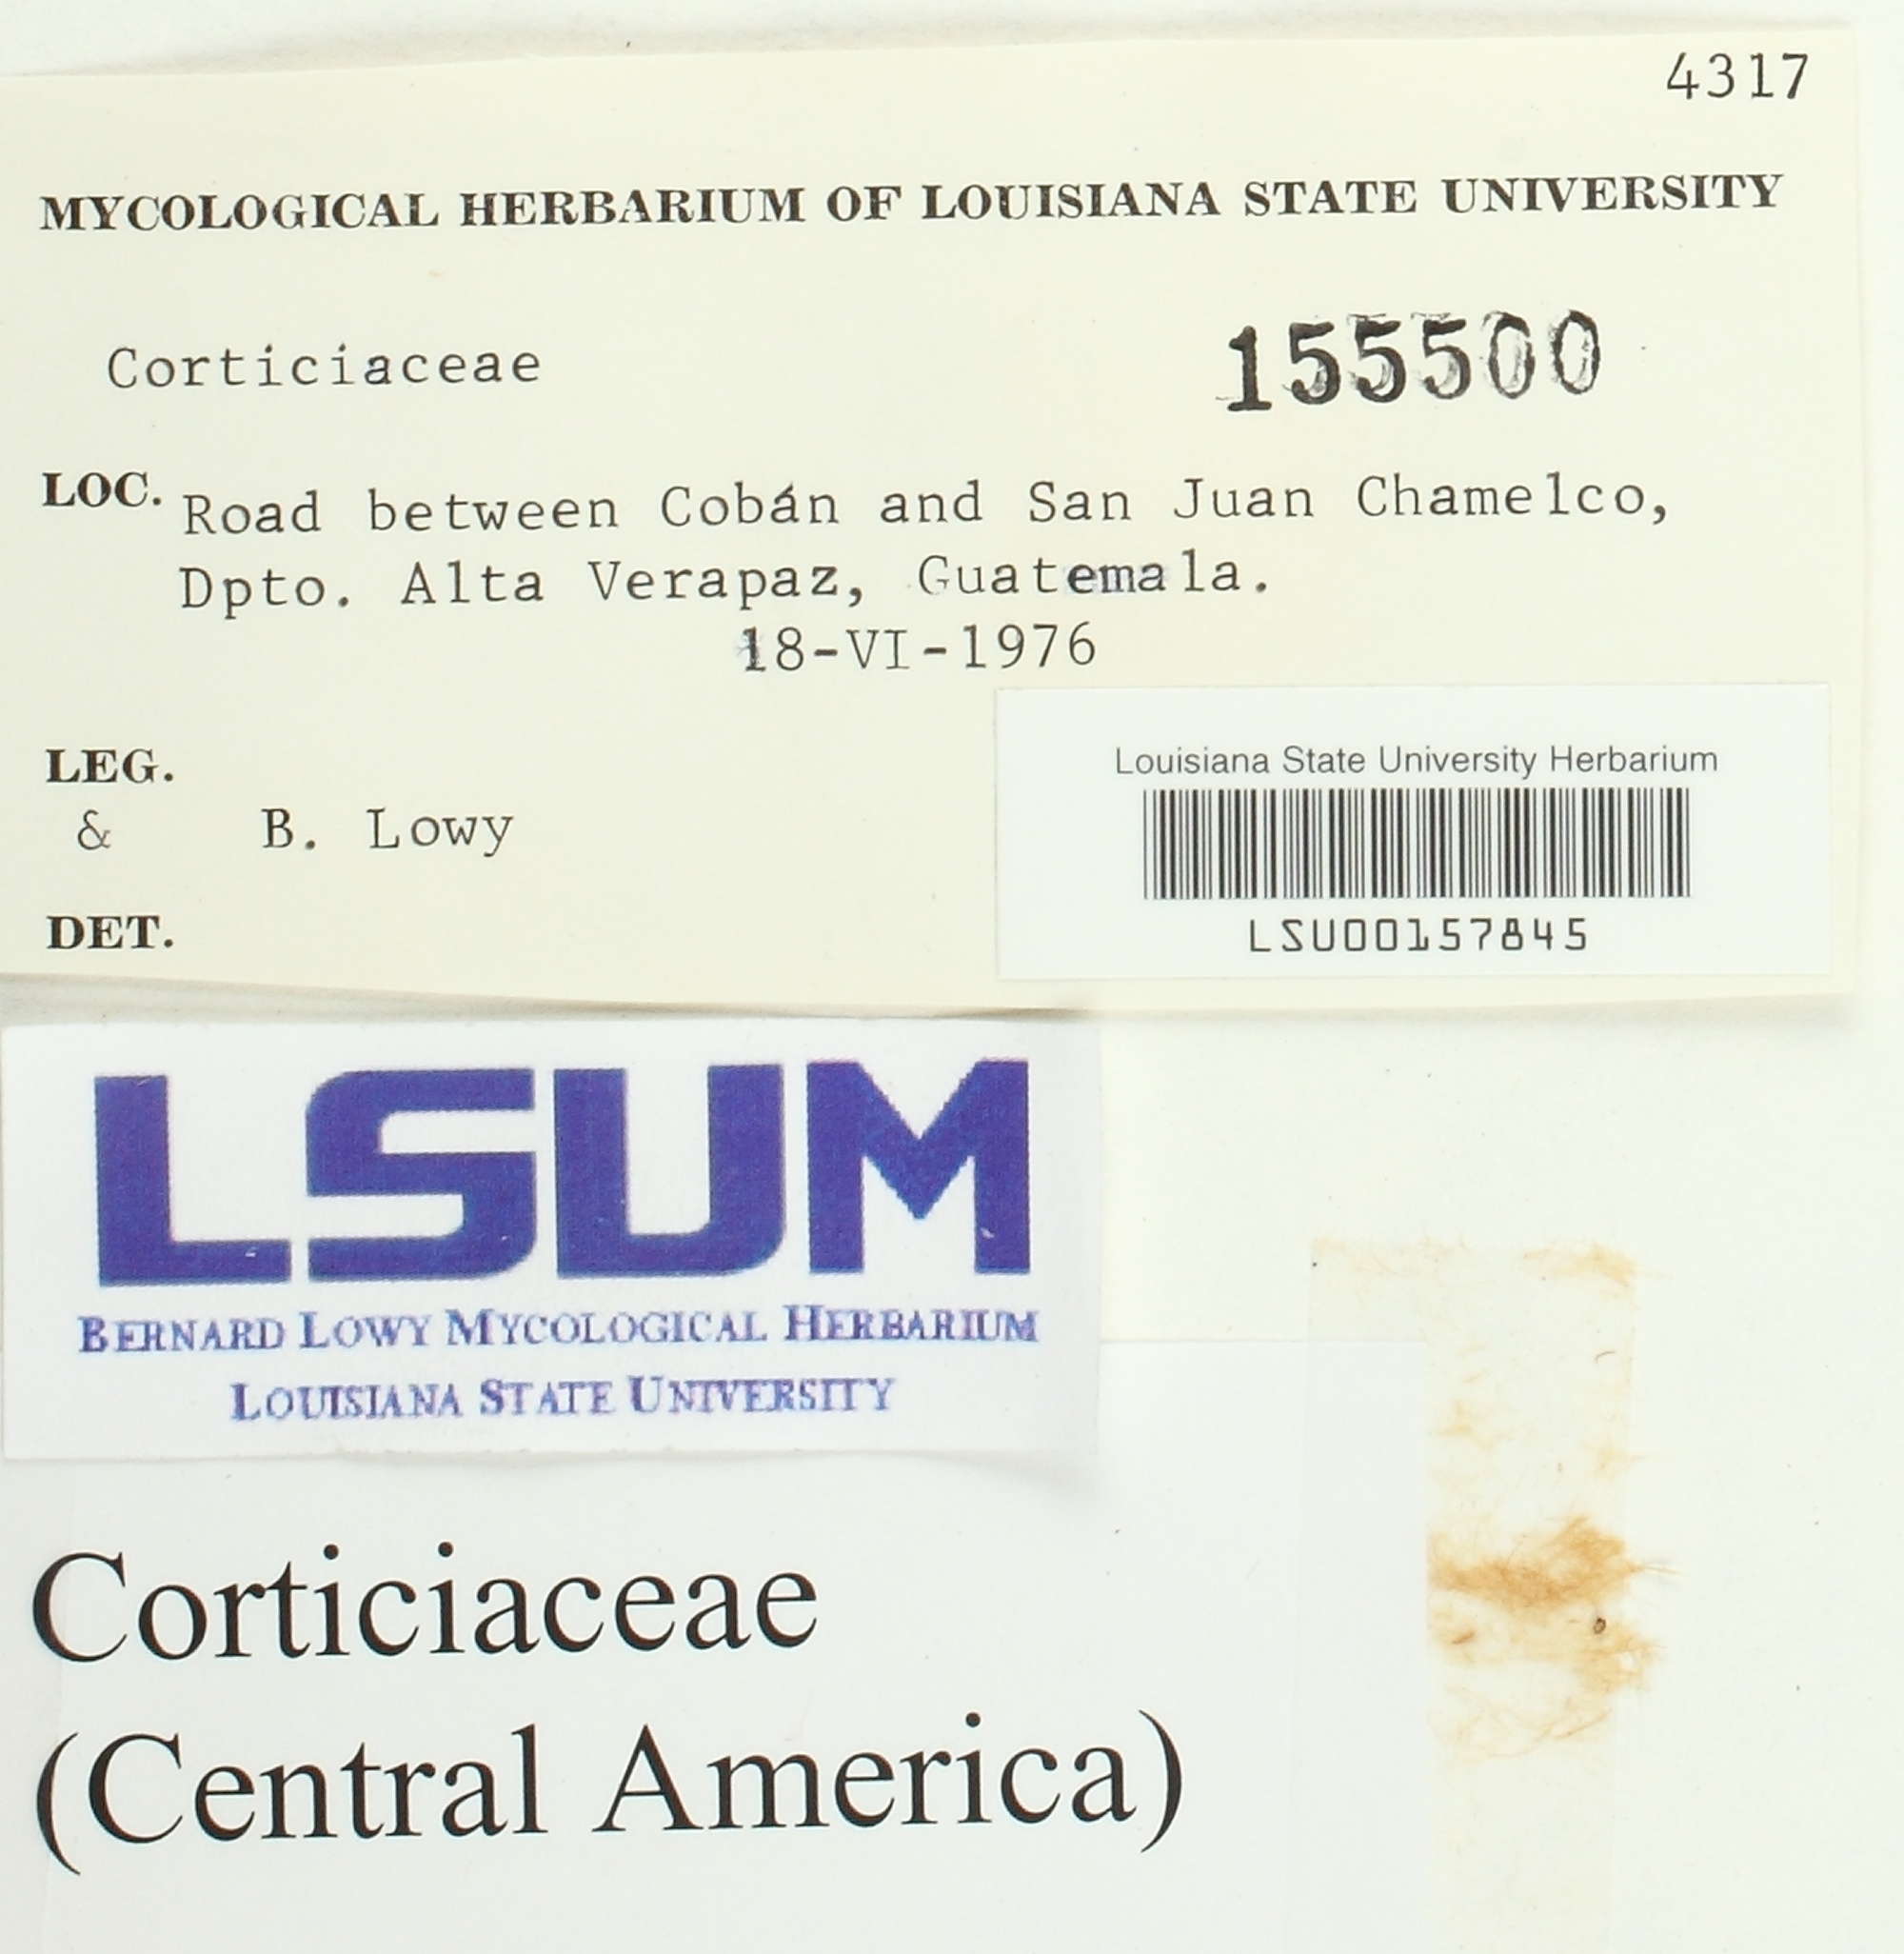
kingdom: Fungi
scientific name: Fungi
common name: Fungi
